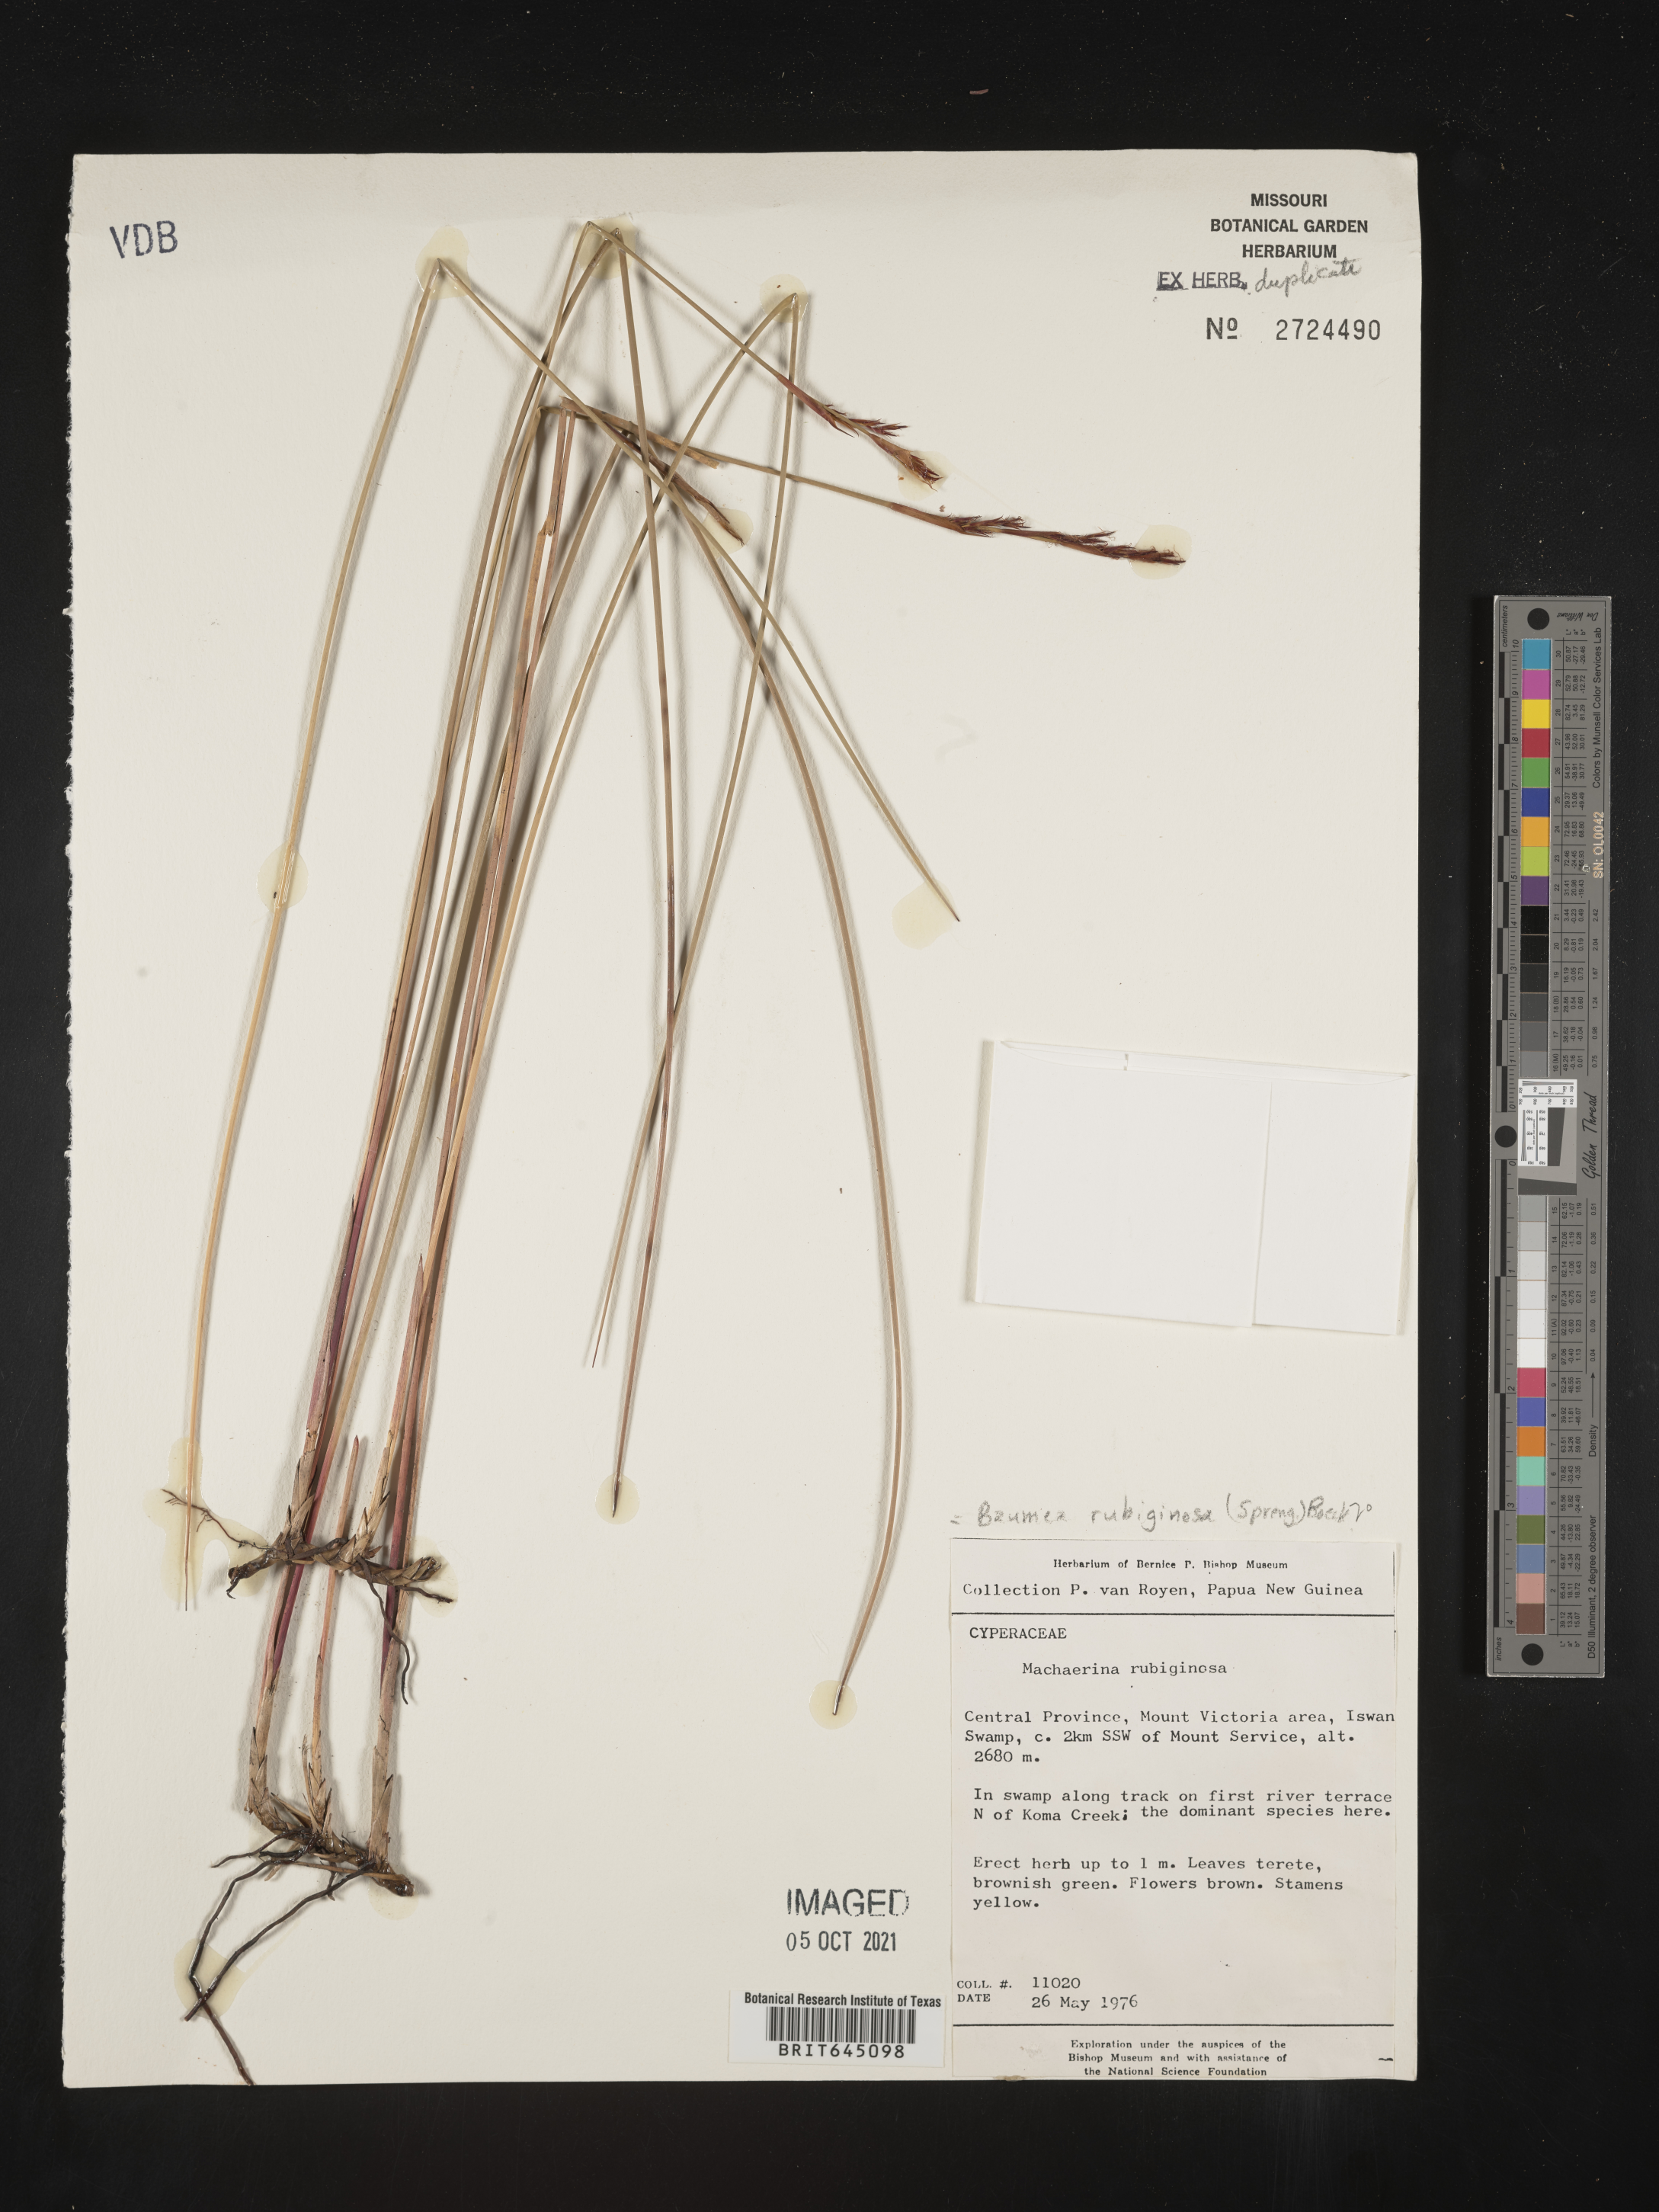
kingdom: Plantae
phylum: Tracheophyta
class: Liliopsida
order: Poales
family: Cyperaceae
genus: Machaerina
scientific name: Machaerina rubiginosa
